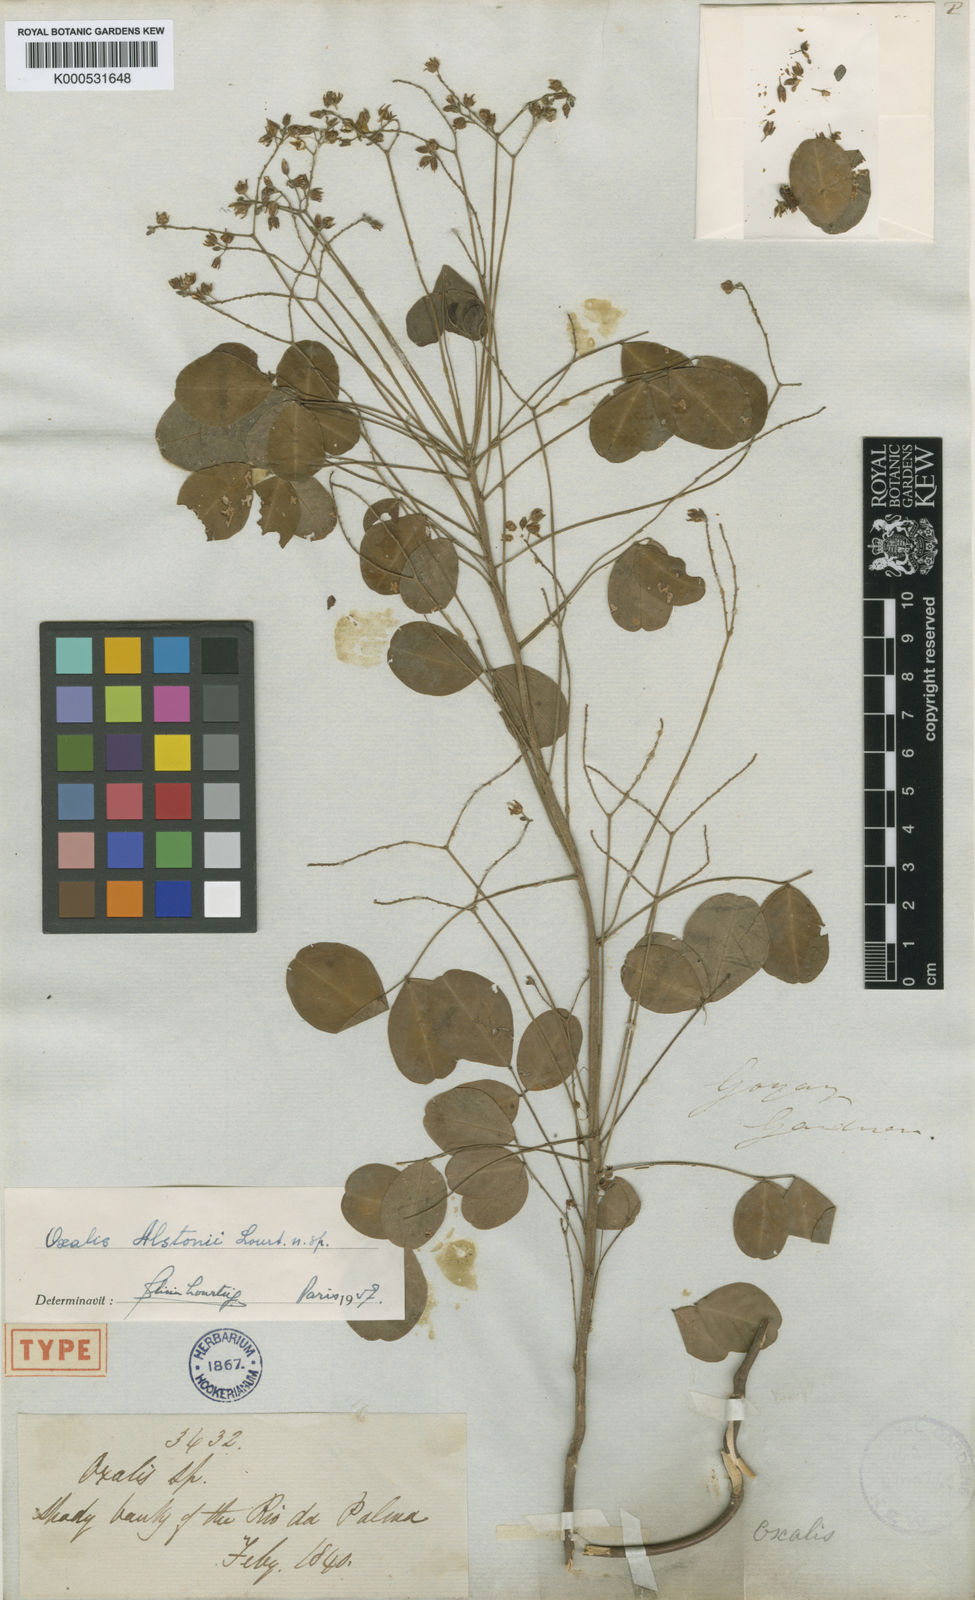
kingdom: Plantae
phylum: Tracheophyta
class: Magnoliopsida
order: Oxalidales
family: Oxalidaceae
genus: Oxalis
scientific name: Oxalis alstonii
